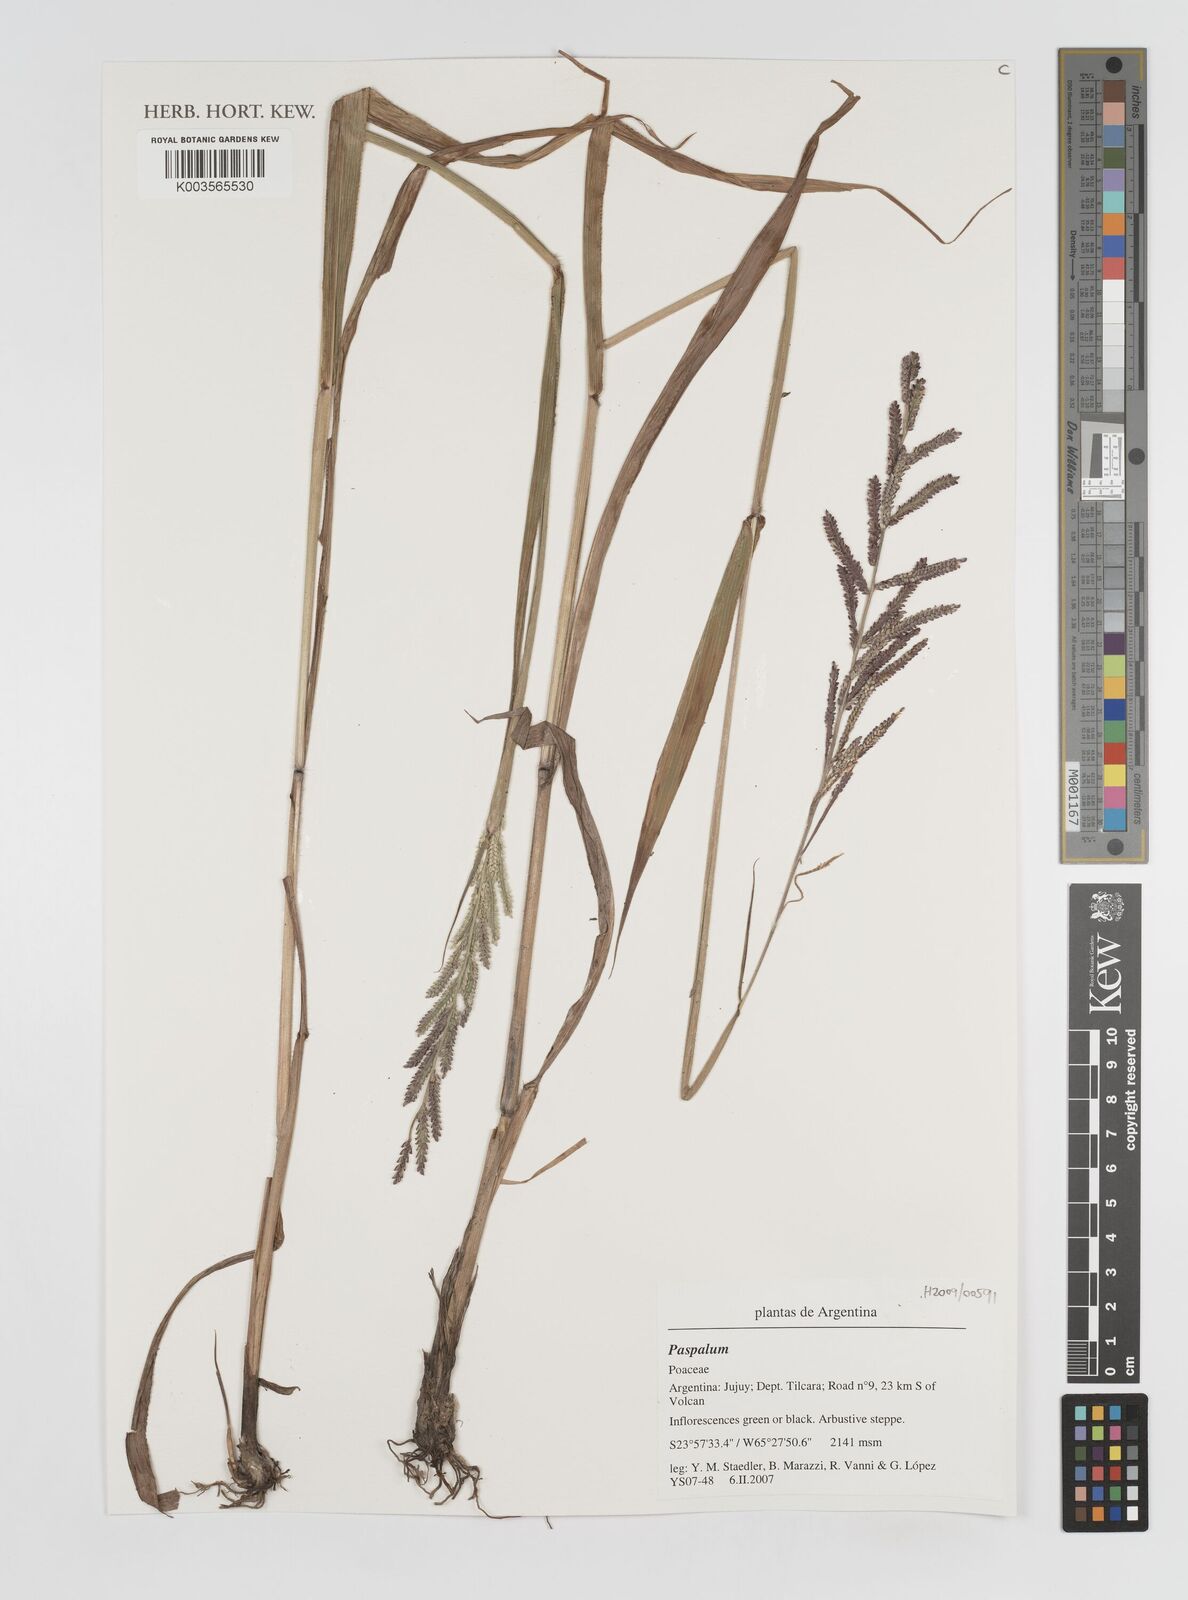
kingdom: Plantae
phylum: Tracheophyta
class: Liliopsida
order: Poales
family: Poaceae
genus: Paspalum
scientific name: Paspalum
